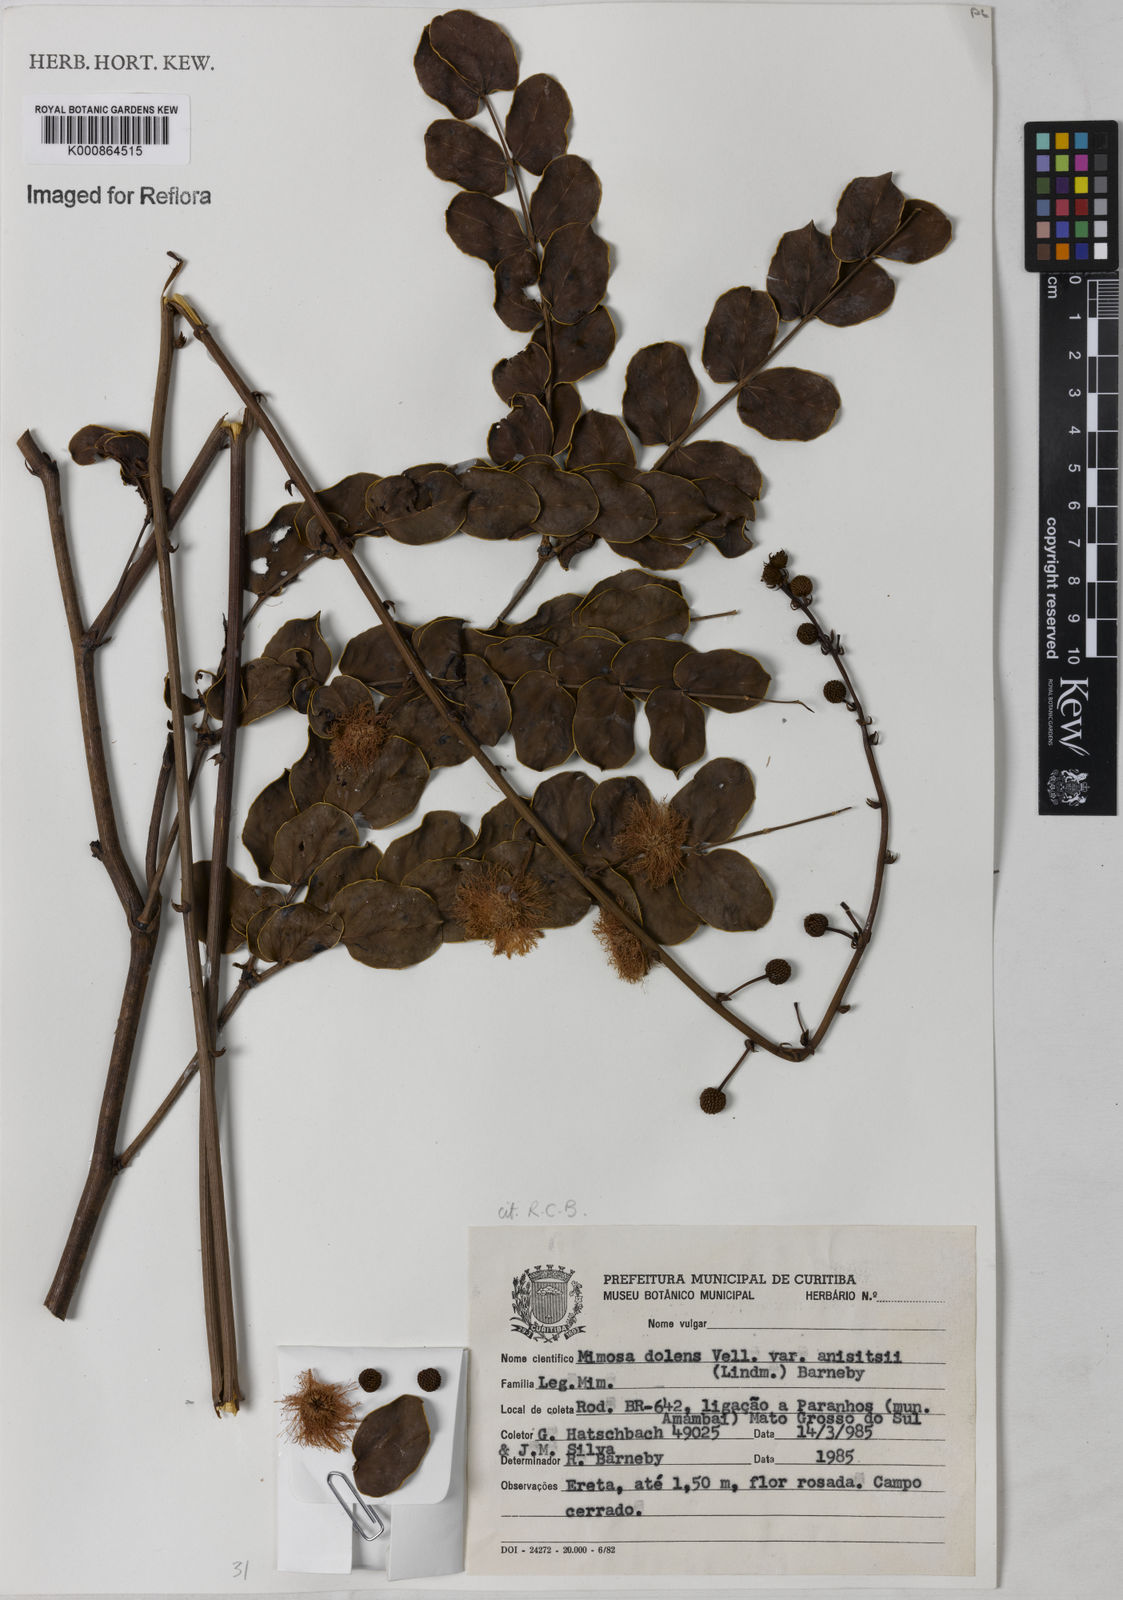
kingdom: Plantae
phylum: Tracheophyta
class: Magnoliopsida
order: Fabales
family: Fabaceae
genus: Mimosa
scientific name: Mimosa dolens
